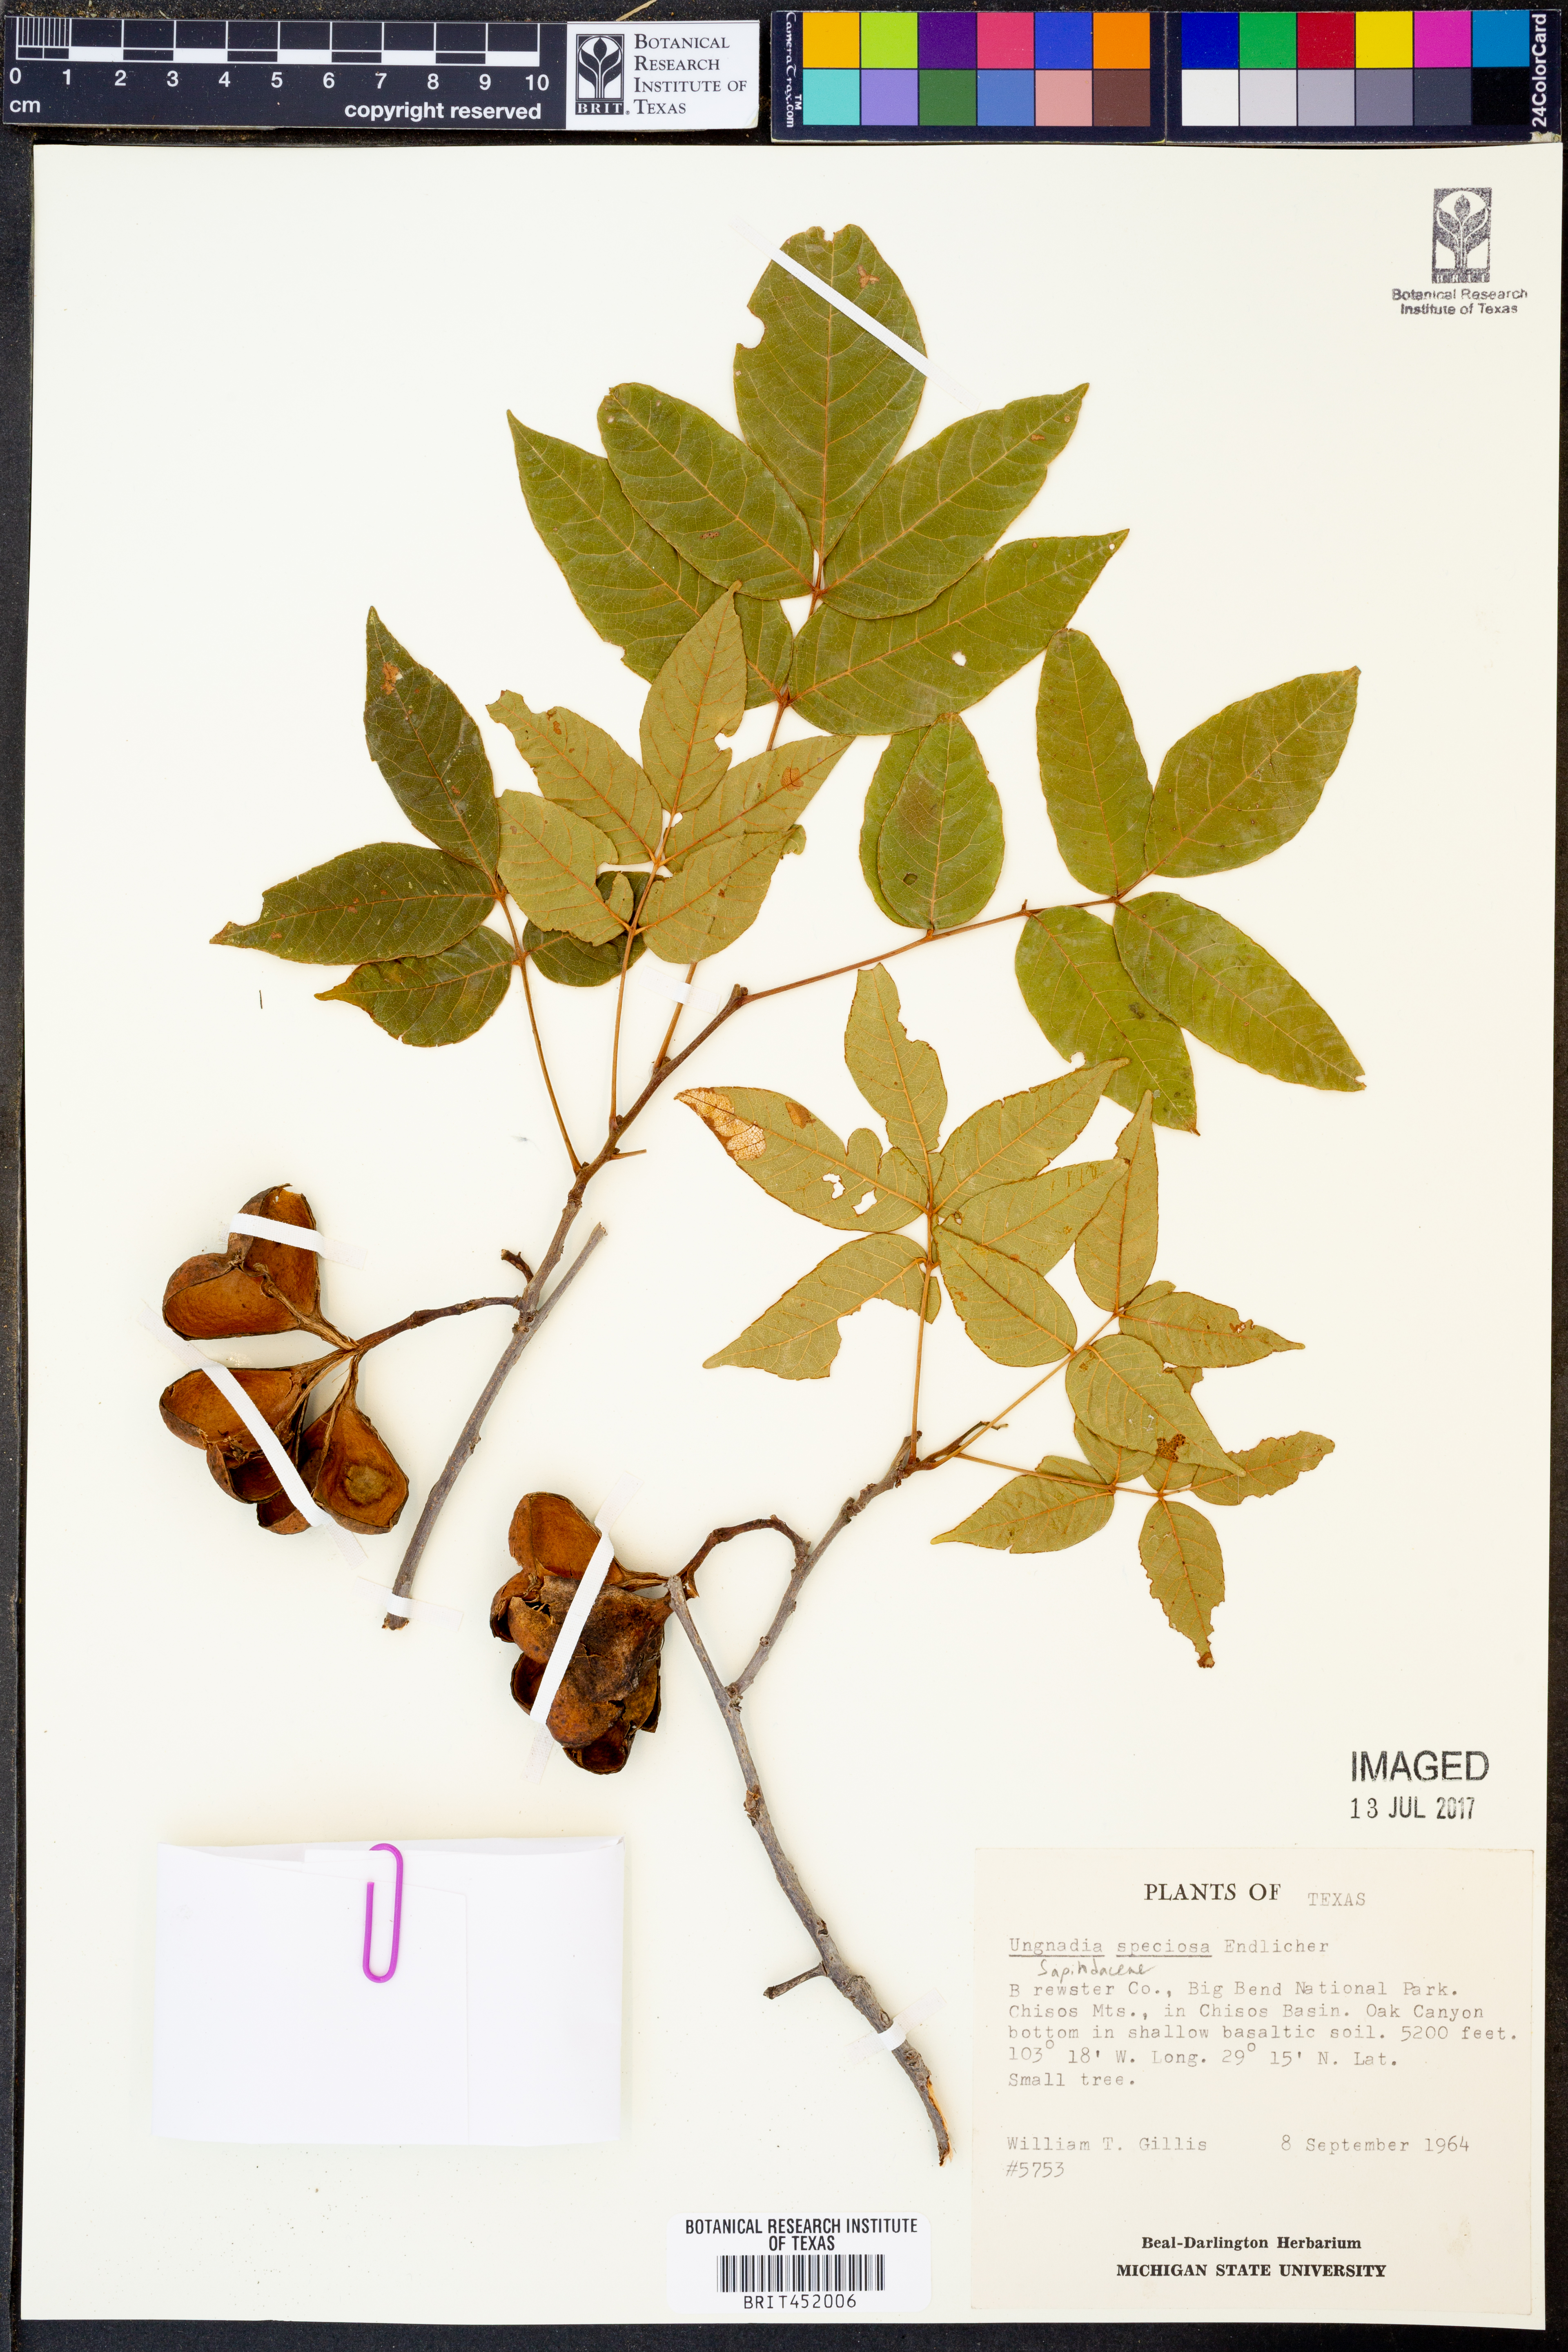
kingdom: Plantae
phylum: Tracheophyta
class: Magnoliopsida
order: Sapindales
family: Sapindaceae
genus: Ungnadia
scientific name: Ungnadia speciosa
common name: Texas-buckeye
